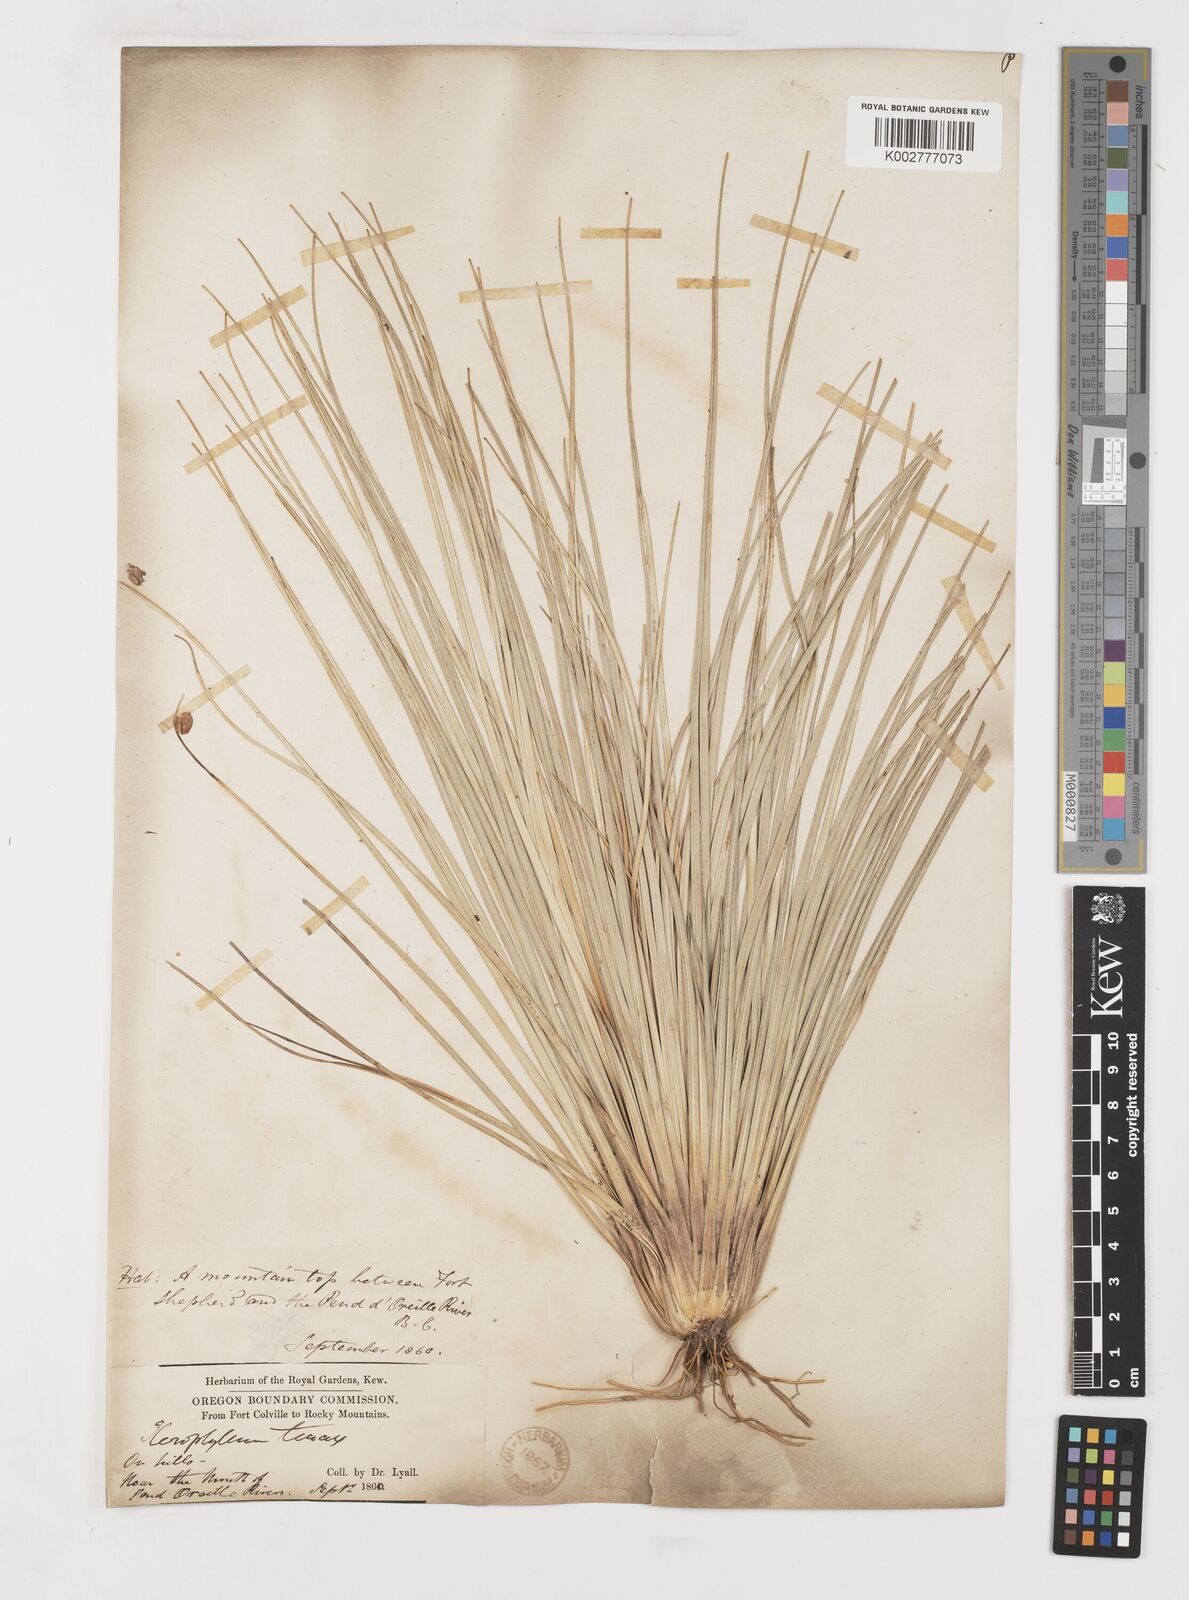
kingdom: Plantae
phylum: Tracheophyta
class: Liliopsida
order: Liliales
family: Melanthiaceae
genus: Xerophyllum
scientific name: Xerophyllum tenax
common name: Bear-grass
